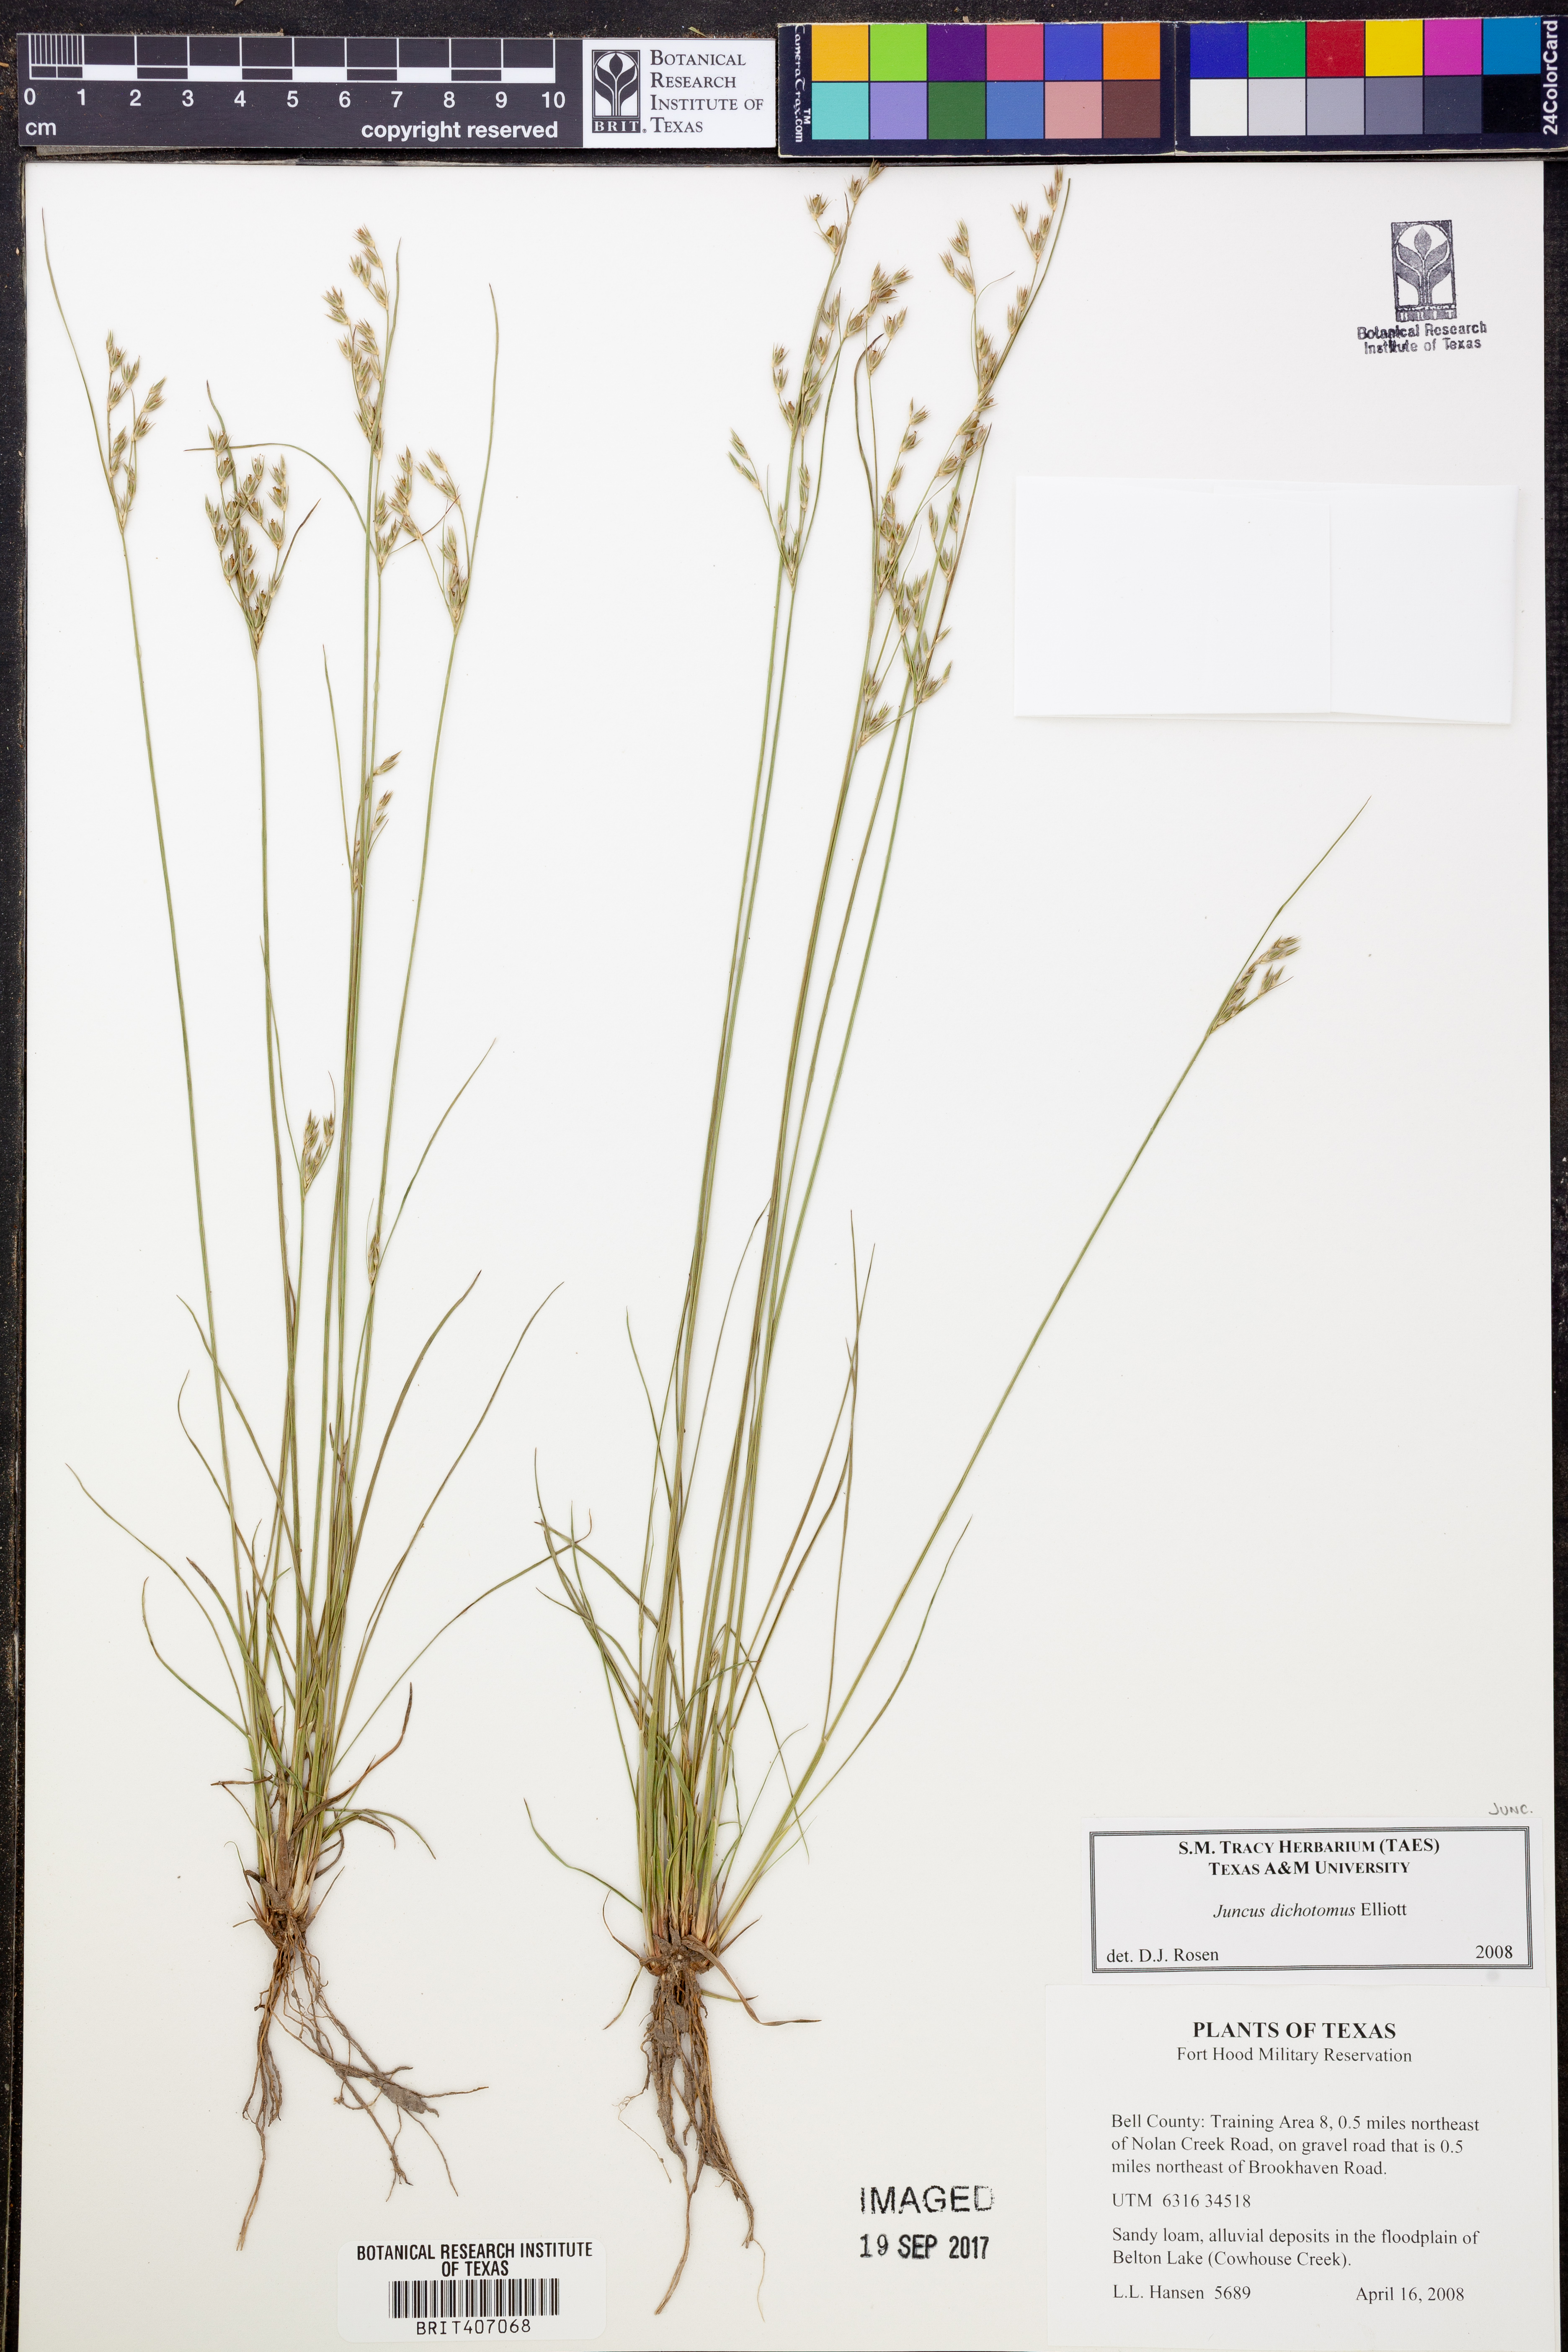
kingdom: Plantae
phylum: Tracheophyta
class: Liliopsida
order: Poales
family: Juncaceae
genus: Juncus
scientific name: Juncus dichotomus
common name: Forked rush
